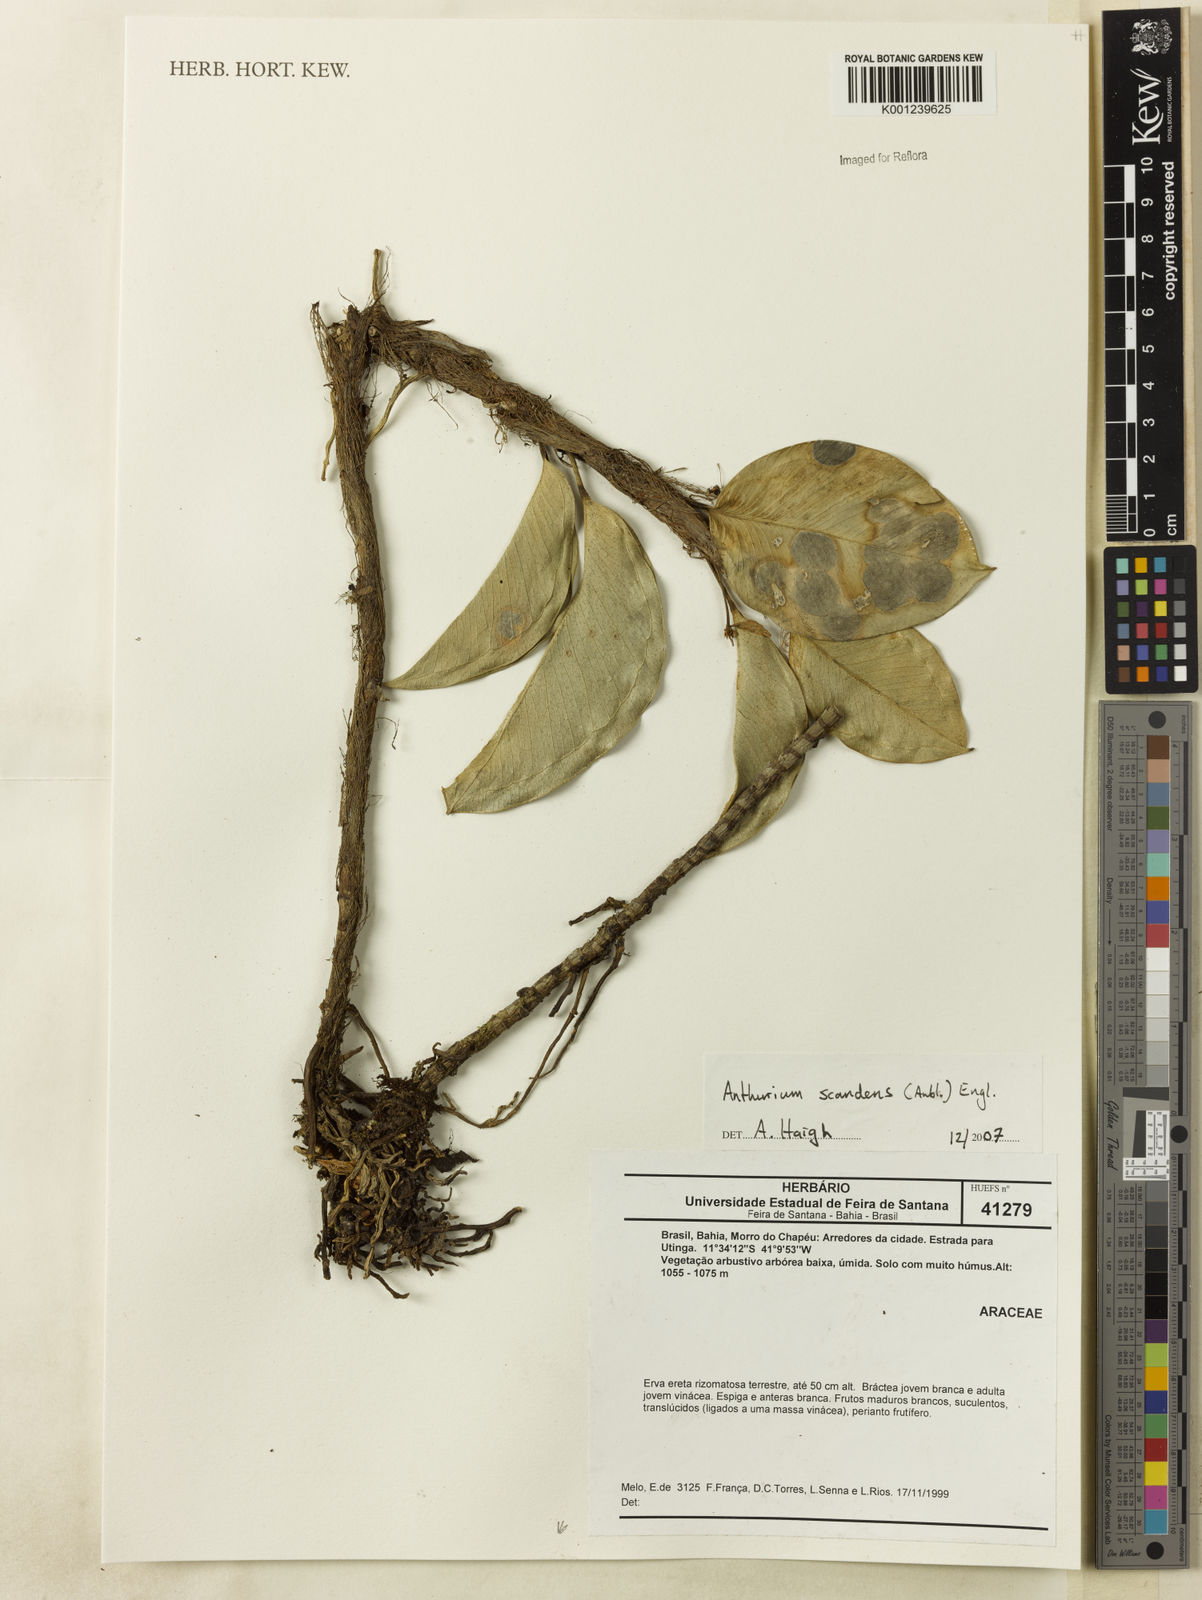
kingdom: Plantae
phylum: Tracheophyta
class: Liliopsida
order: Alismatales
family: Araceae
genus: Anthurium
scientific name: Anthurium scandens
